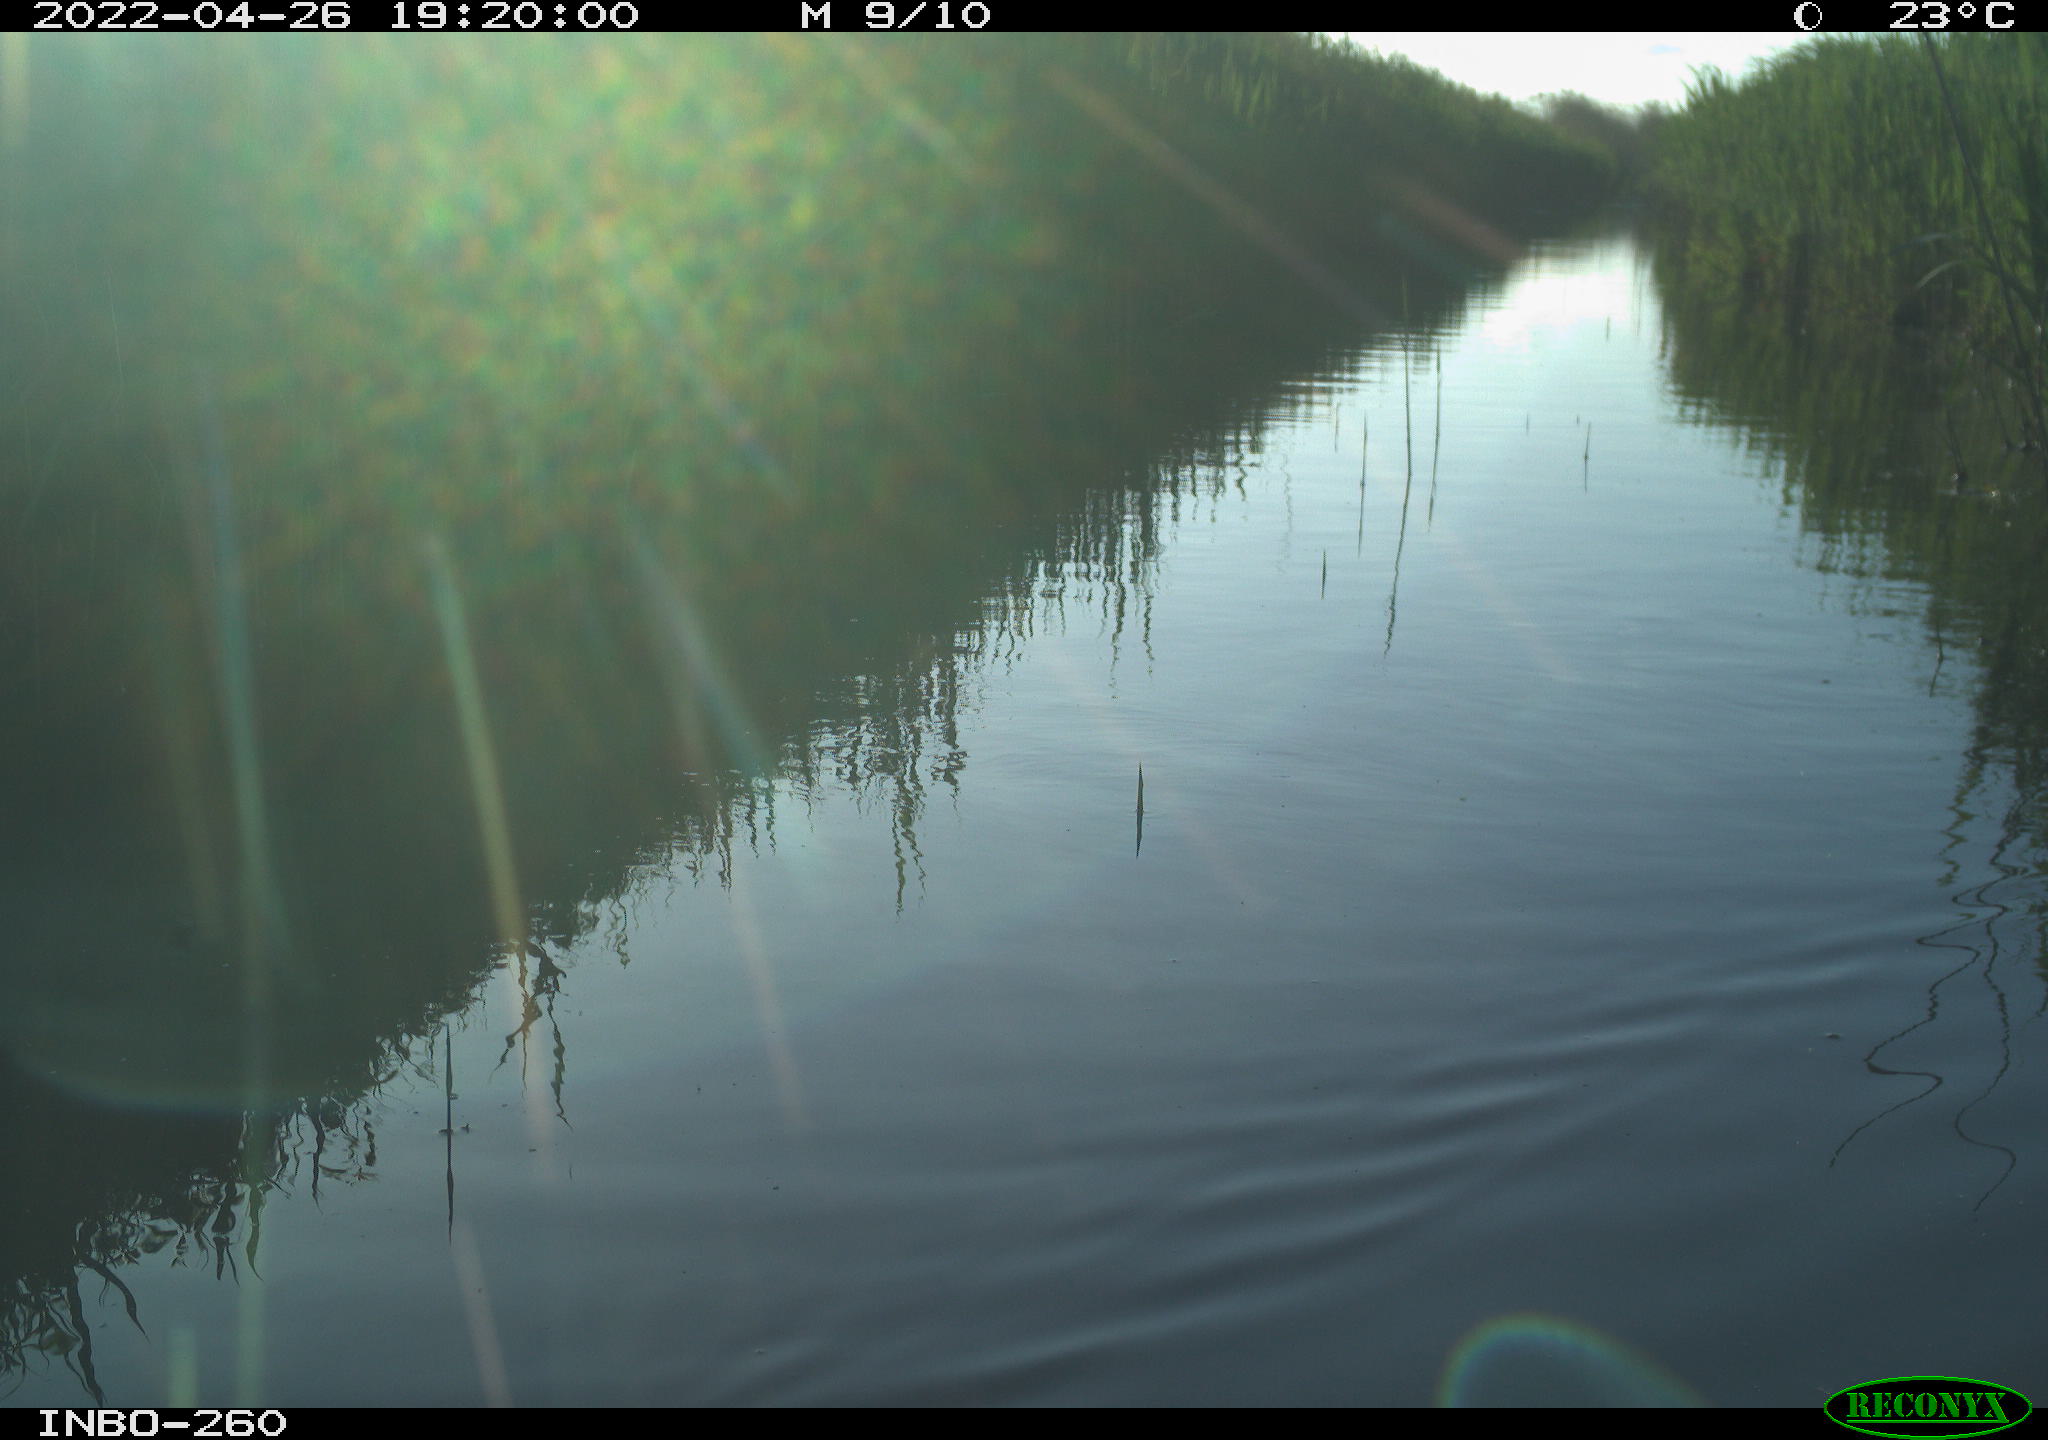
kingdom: Animalia
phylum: Chordata
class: Aves
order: Gruiformes
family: Rallidae
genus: Fulica
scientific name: Fulica atra
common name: Eurasian coot
